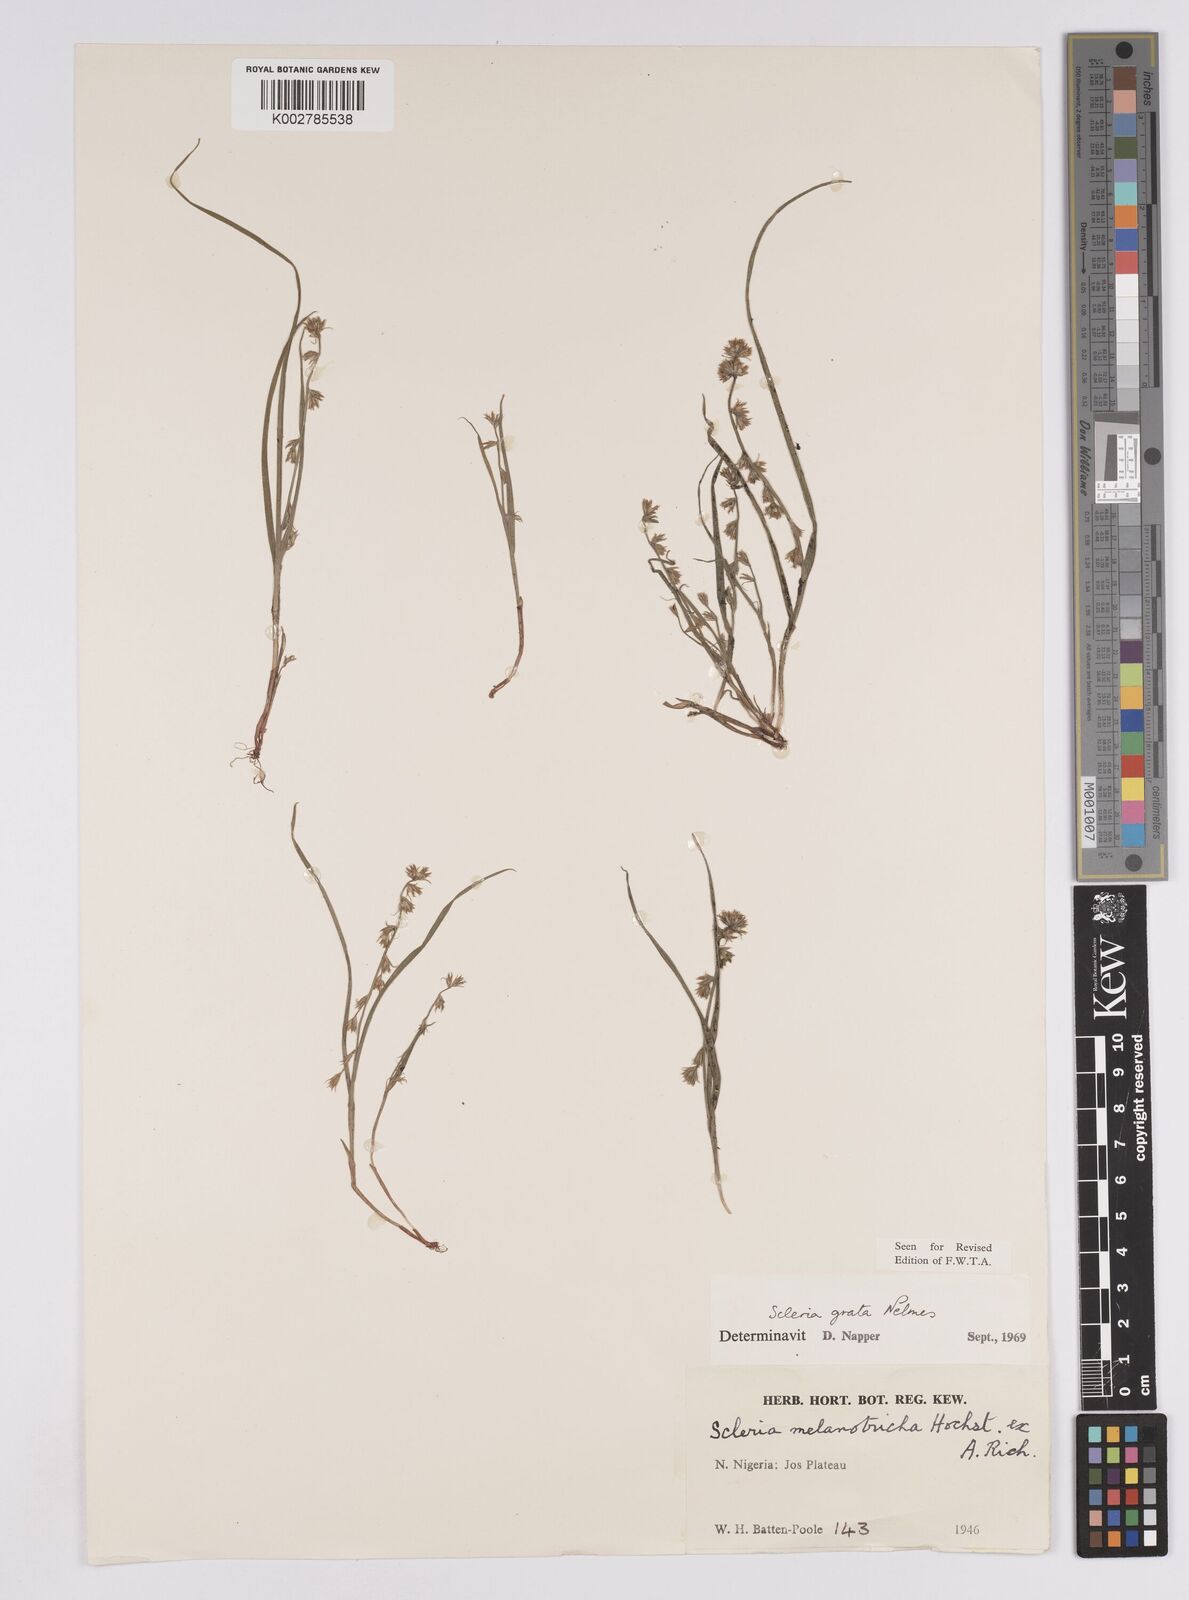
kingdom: Plantae
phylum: Tracheophyta
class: Liliopsida
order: Poales
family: Cyperaceae
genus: Scleria
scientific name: Scleria melanotricha
